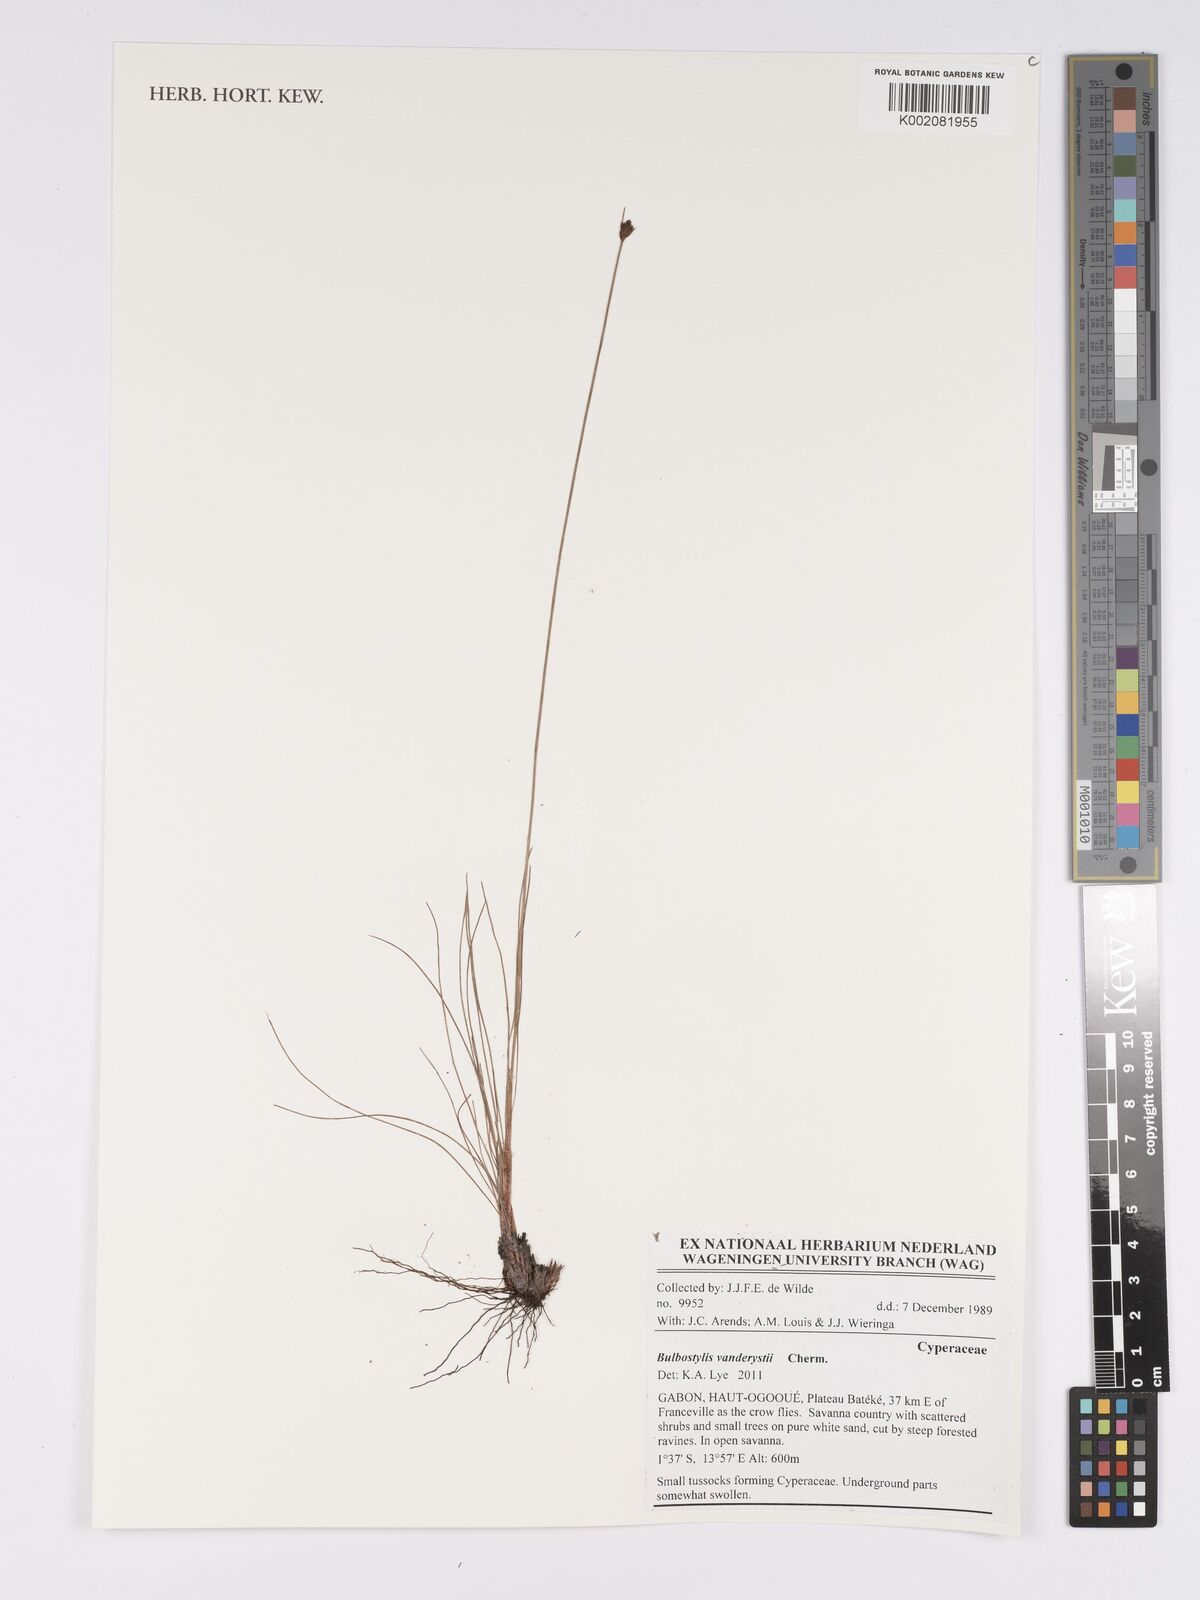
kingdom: Plantae
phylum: Tracheophyta
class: Liliopsida
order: Poales
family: Cyperaceae
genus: Bulbostylis
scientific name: Bulbostylis vanderystii
